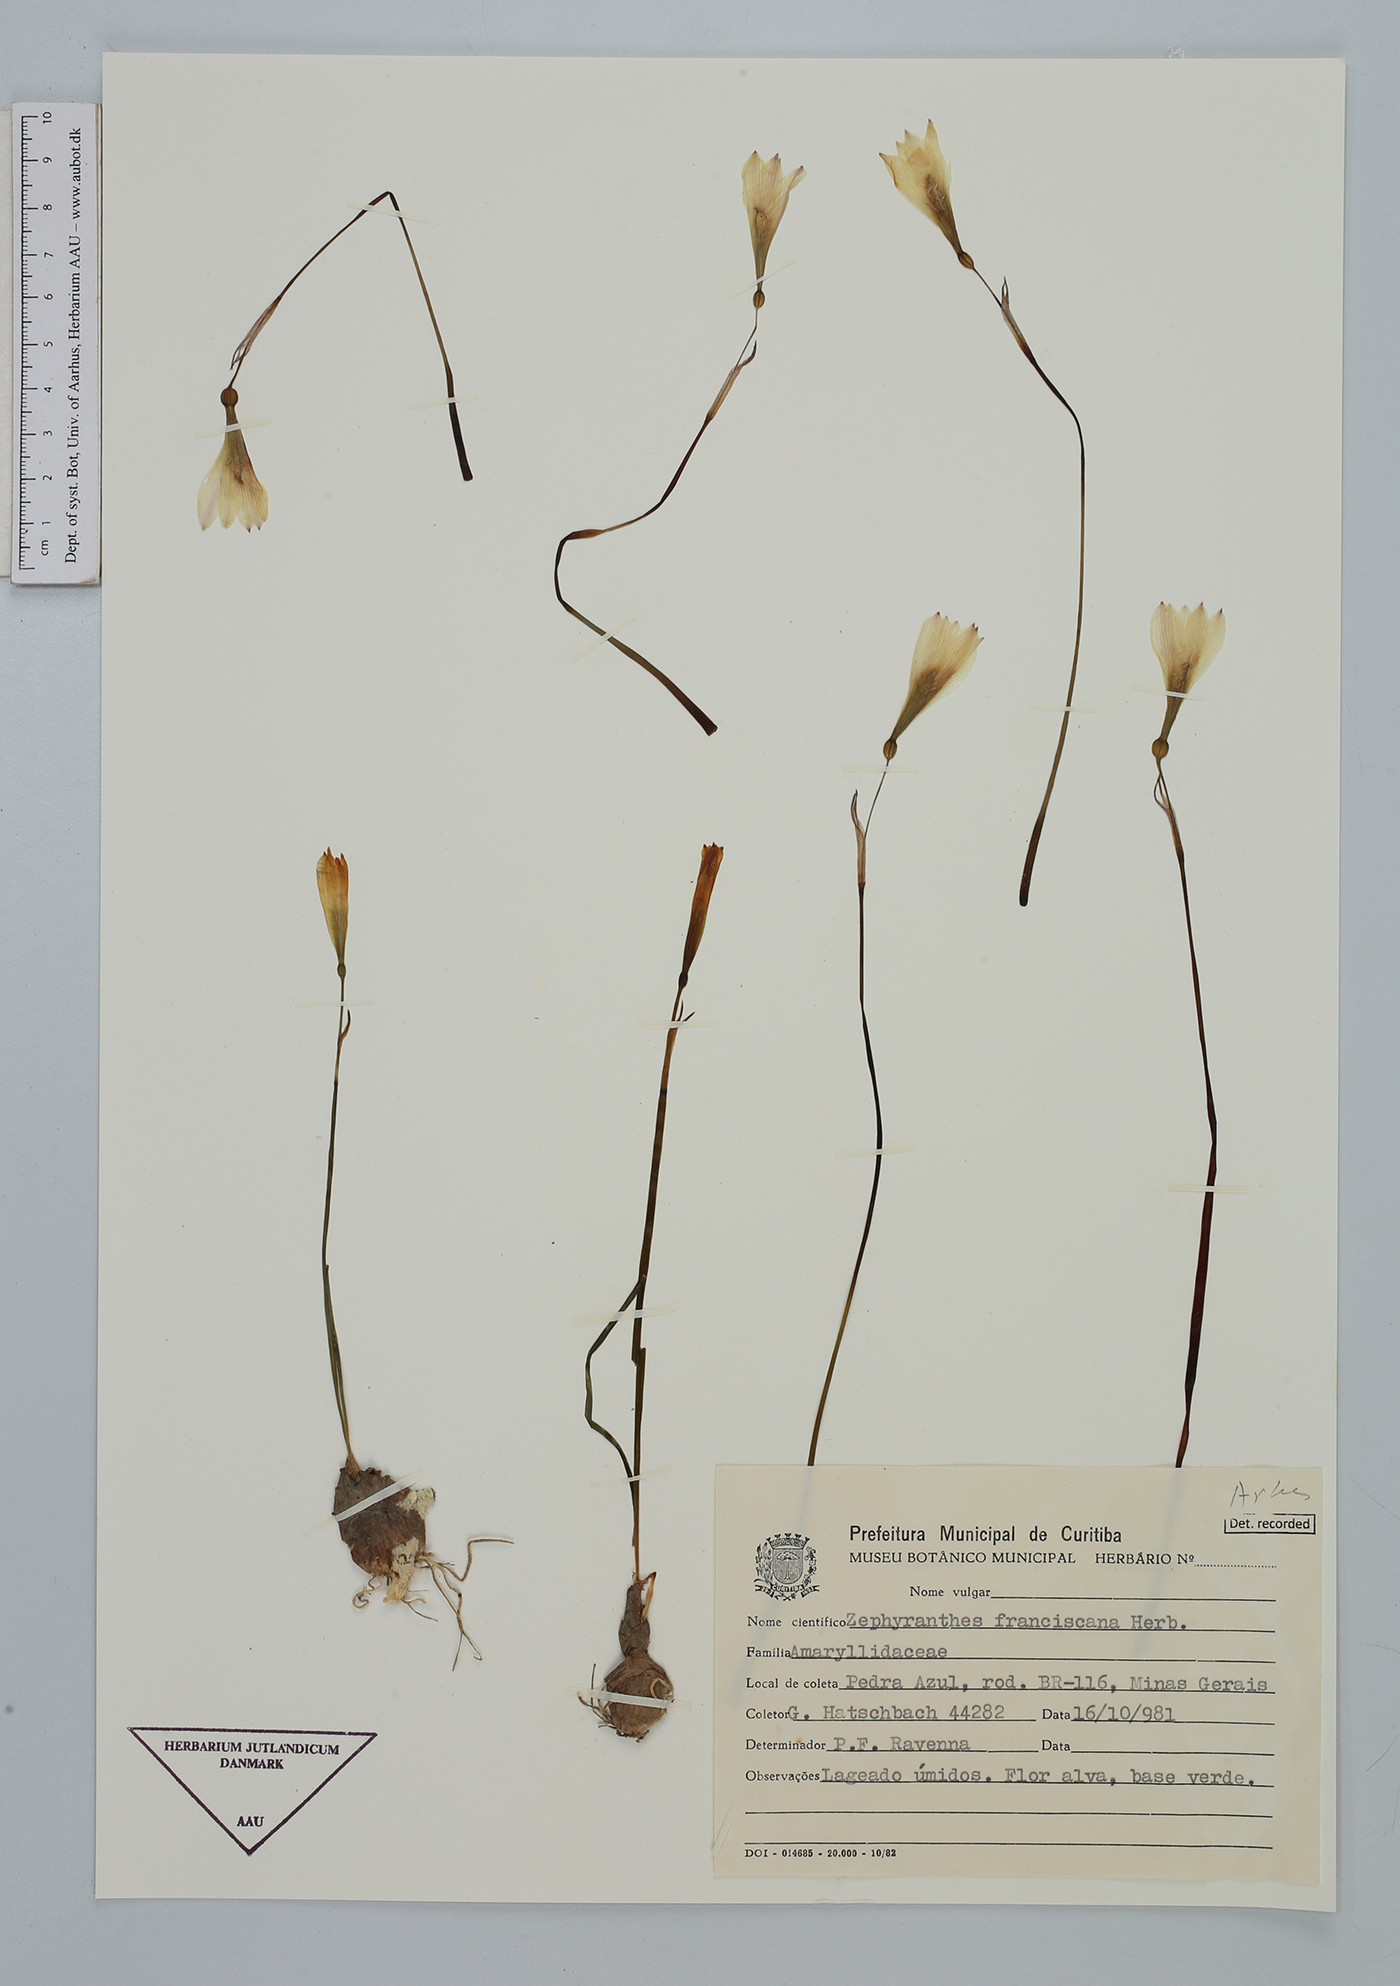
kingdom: Plantae
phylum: Tracheophyta
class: Liliopsida
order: Asparagales
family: Amaryllidaceae
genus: Zephyranthes
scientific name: Zephyranthes sylvatica
